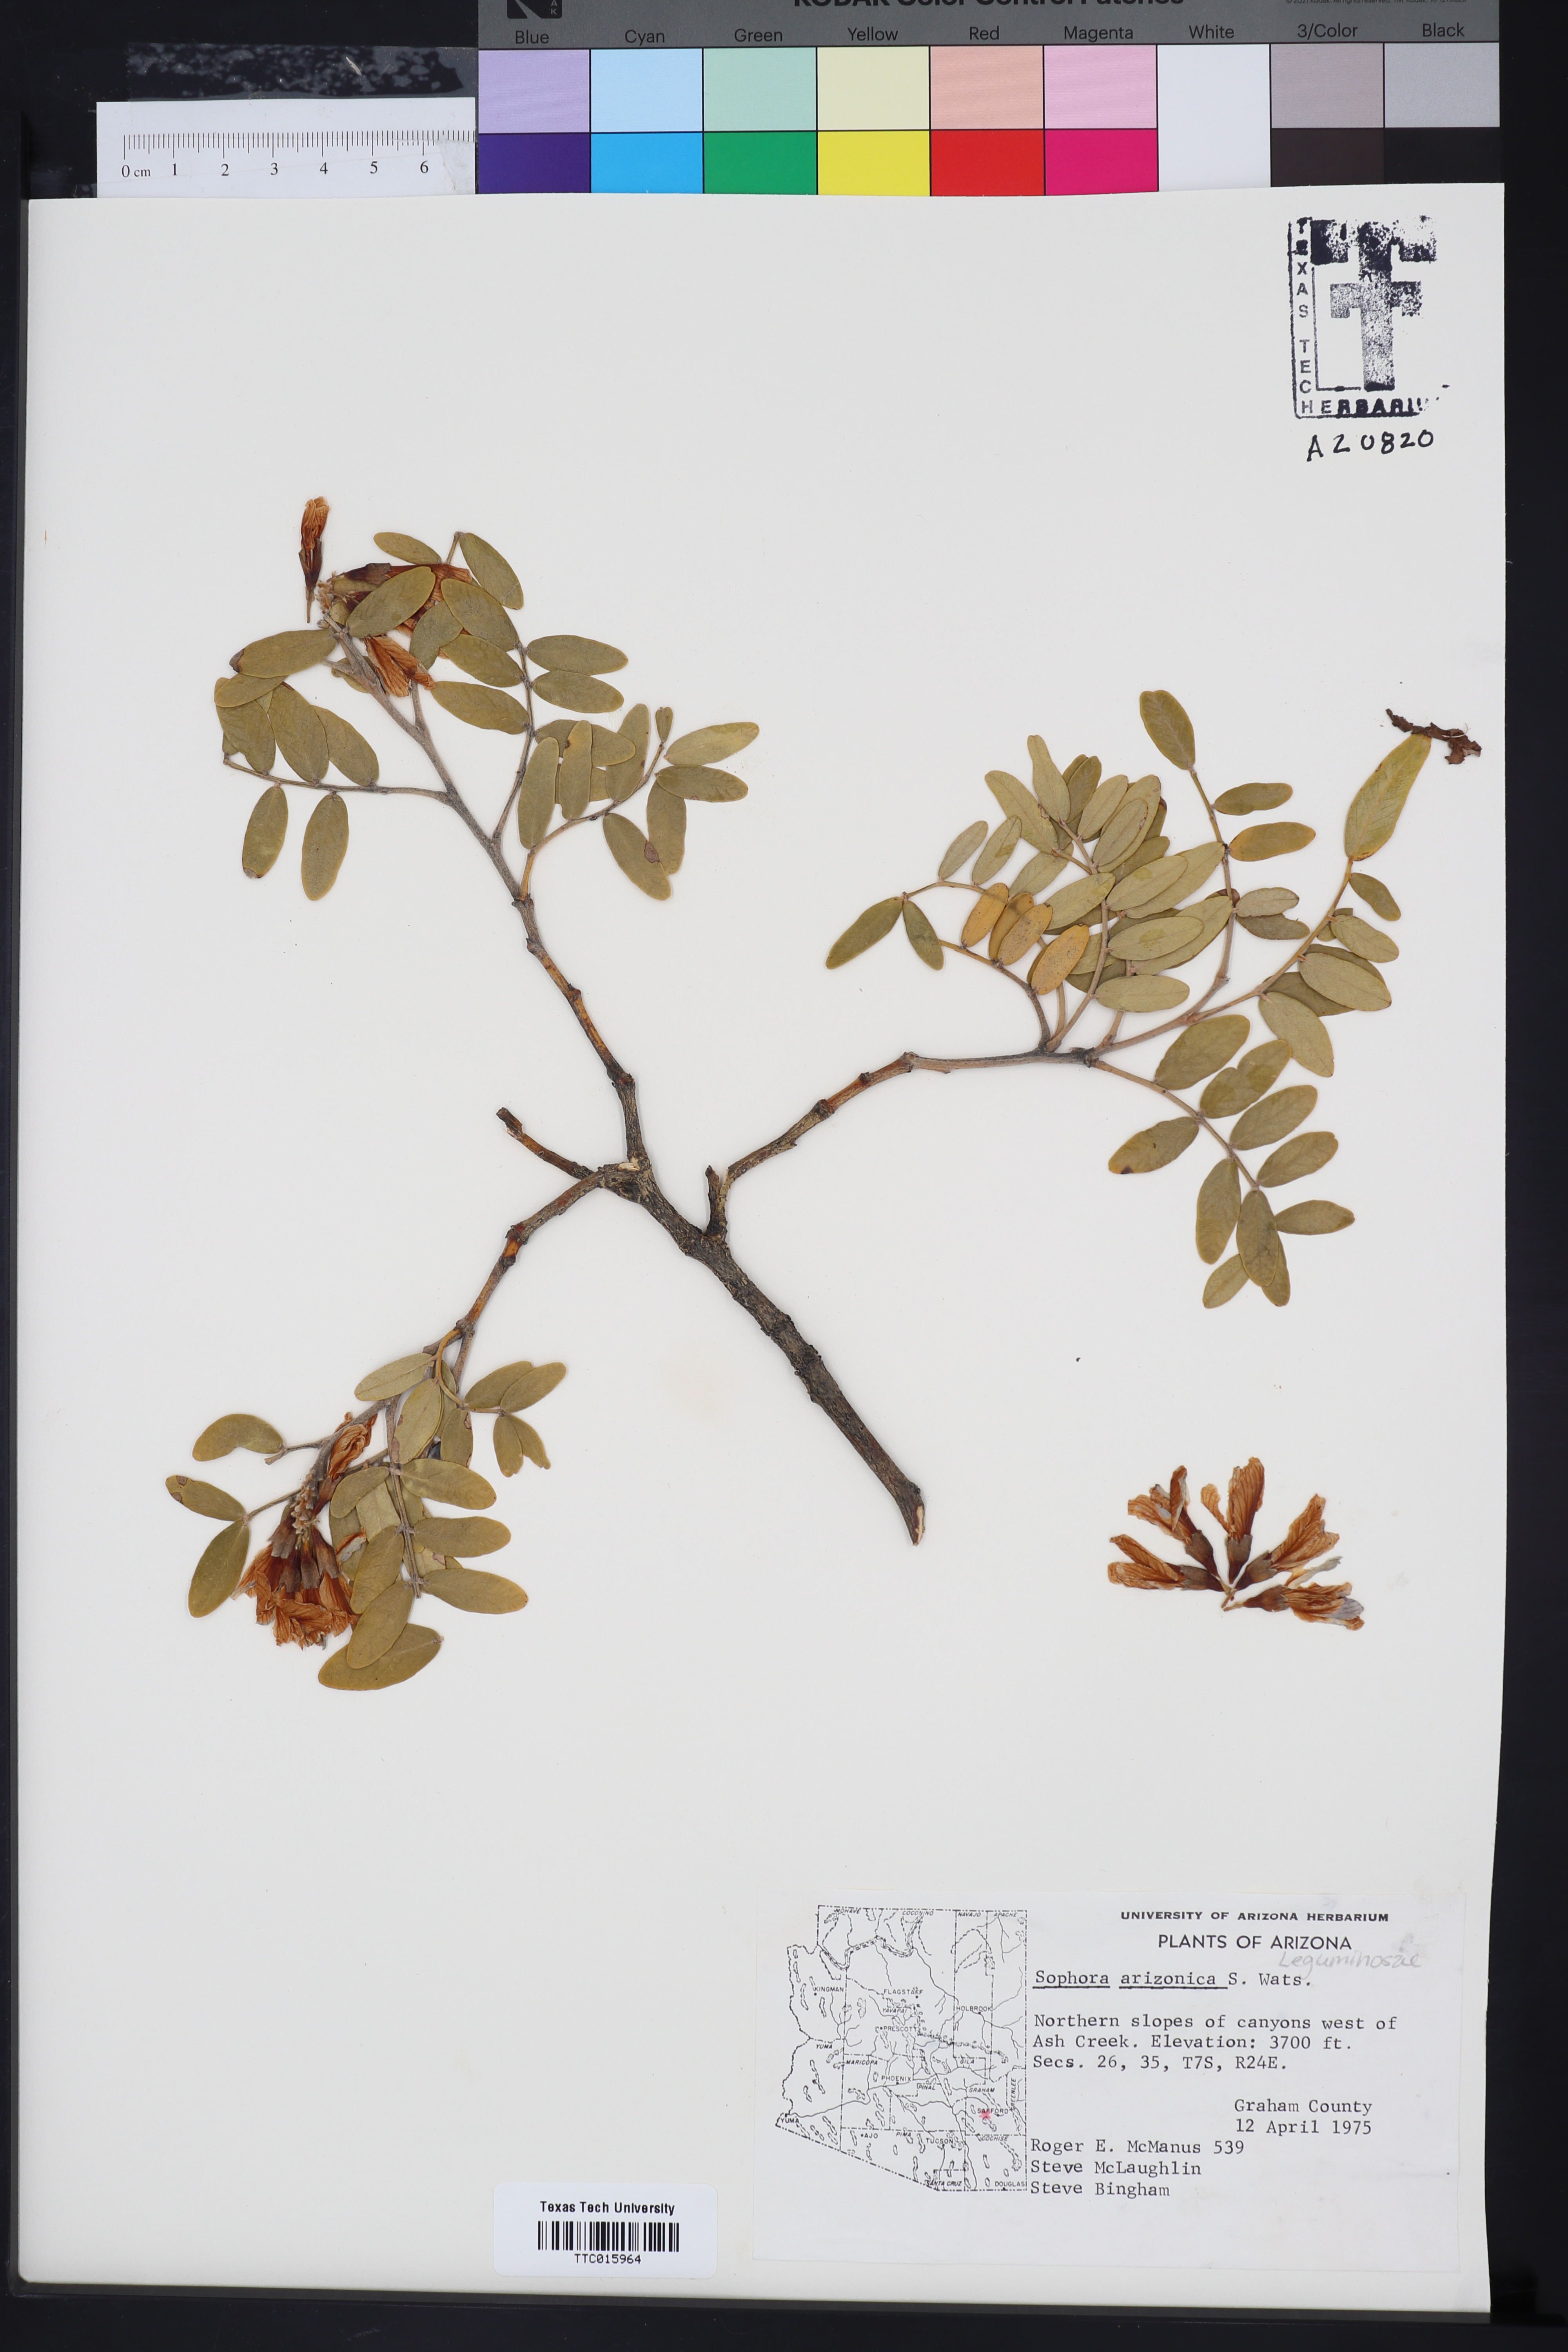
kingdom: Plantae
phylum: Tracheophyta
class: Magnoliopsida
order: Fabales
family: Fabaceae
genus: Dermatophyllum
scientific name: Dermatophyllum arizonicum
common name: Arizona necklace
